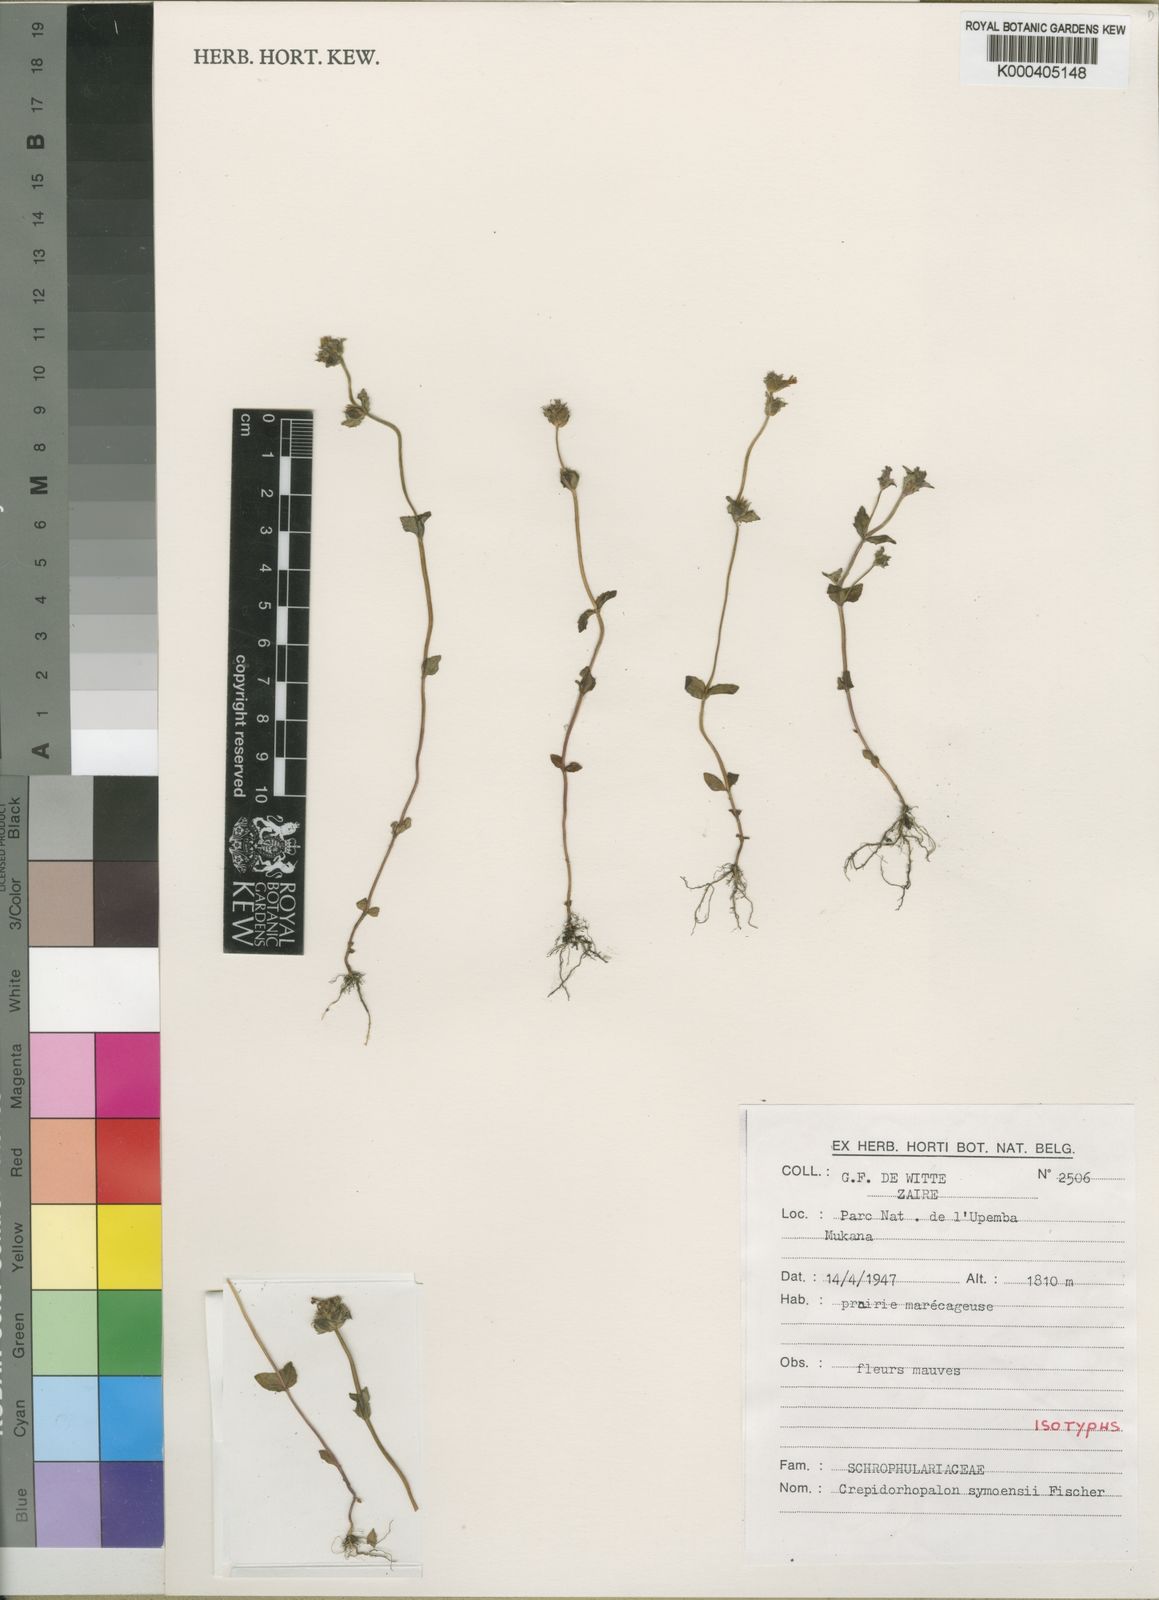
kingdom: Plantae
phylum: Tracheophyta
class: Magnoliopsida
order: Lamiales
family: Linderniaceae
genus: Torenia
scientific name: Torenia
